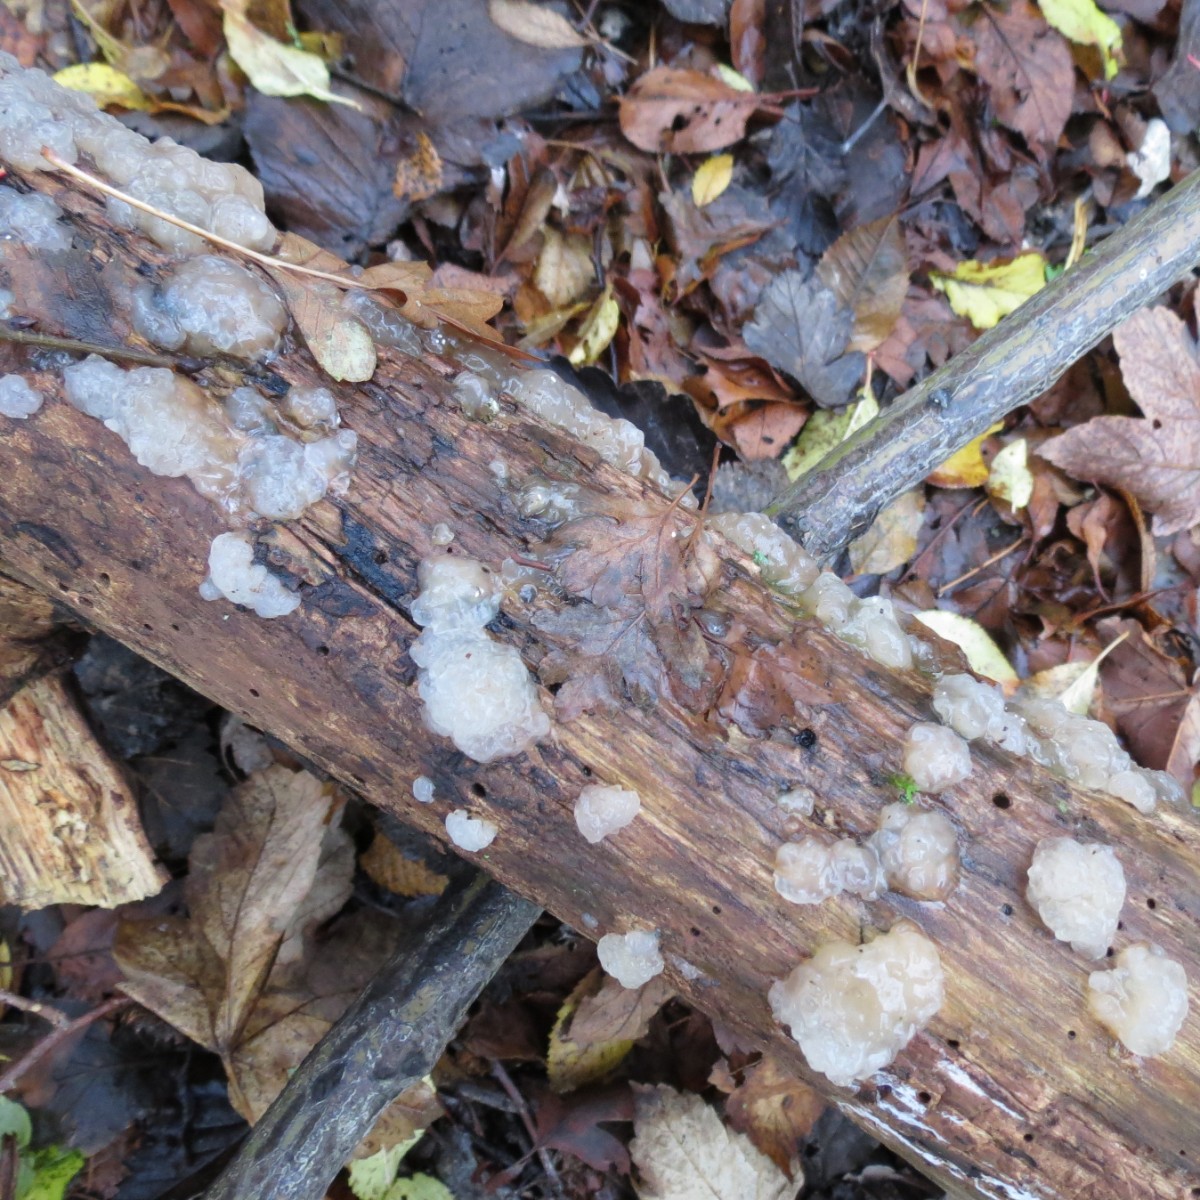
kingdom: Fungi
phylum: Basidiomycota
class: Agaricomycetes
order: Auriculariales
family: Hyaloriaceae
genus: Myxarium
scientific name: Myxarium nucleatum
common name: klar bævretop
